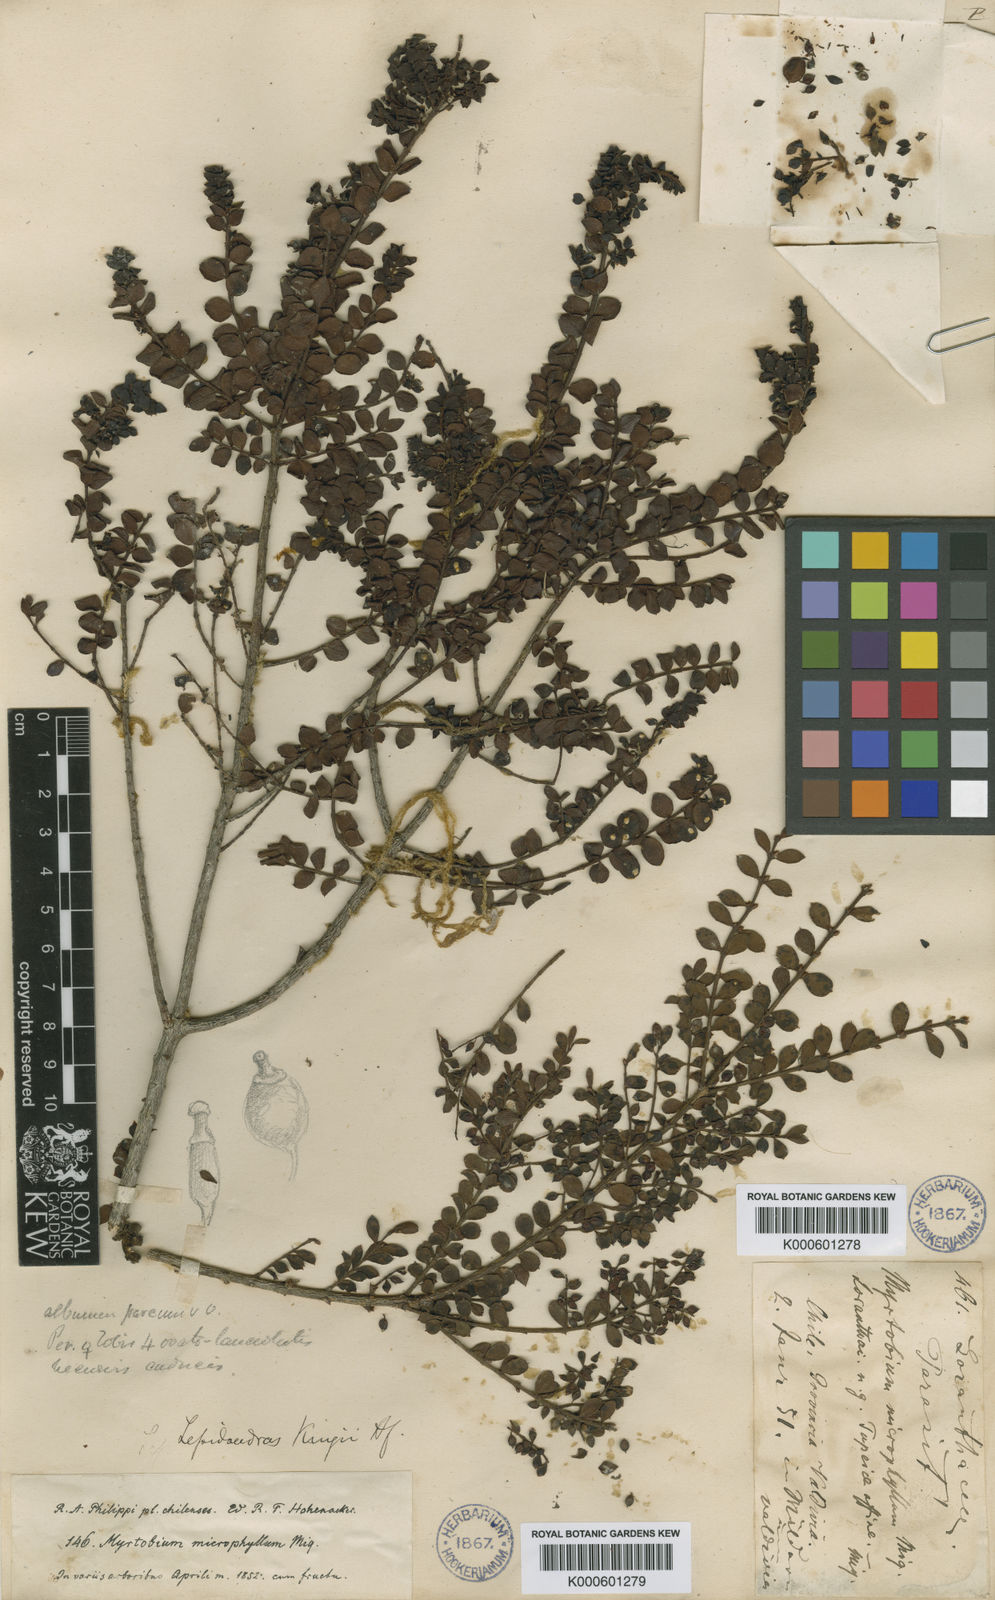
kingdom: Plantae
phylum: Tracheophyta
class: Magnoliopsida
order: Santalales
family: Santalaceae
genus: Lepidoceras
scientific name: Lepidoceras chilense
